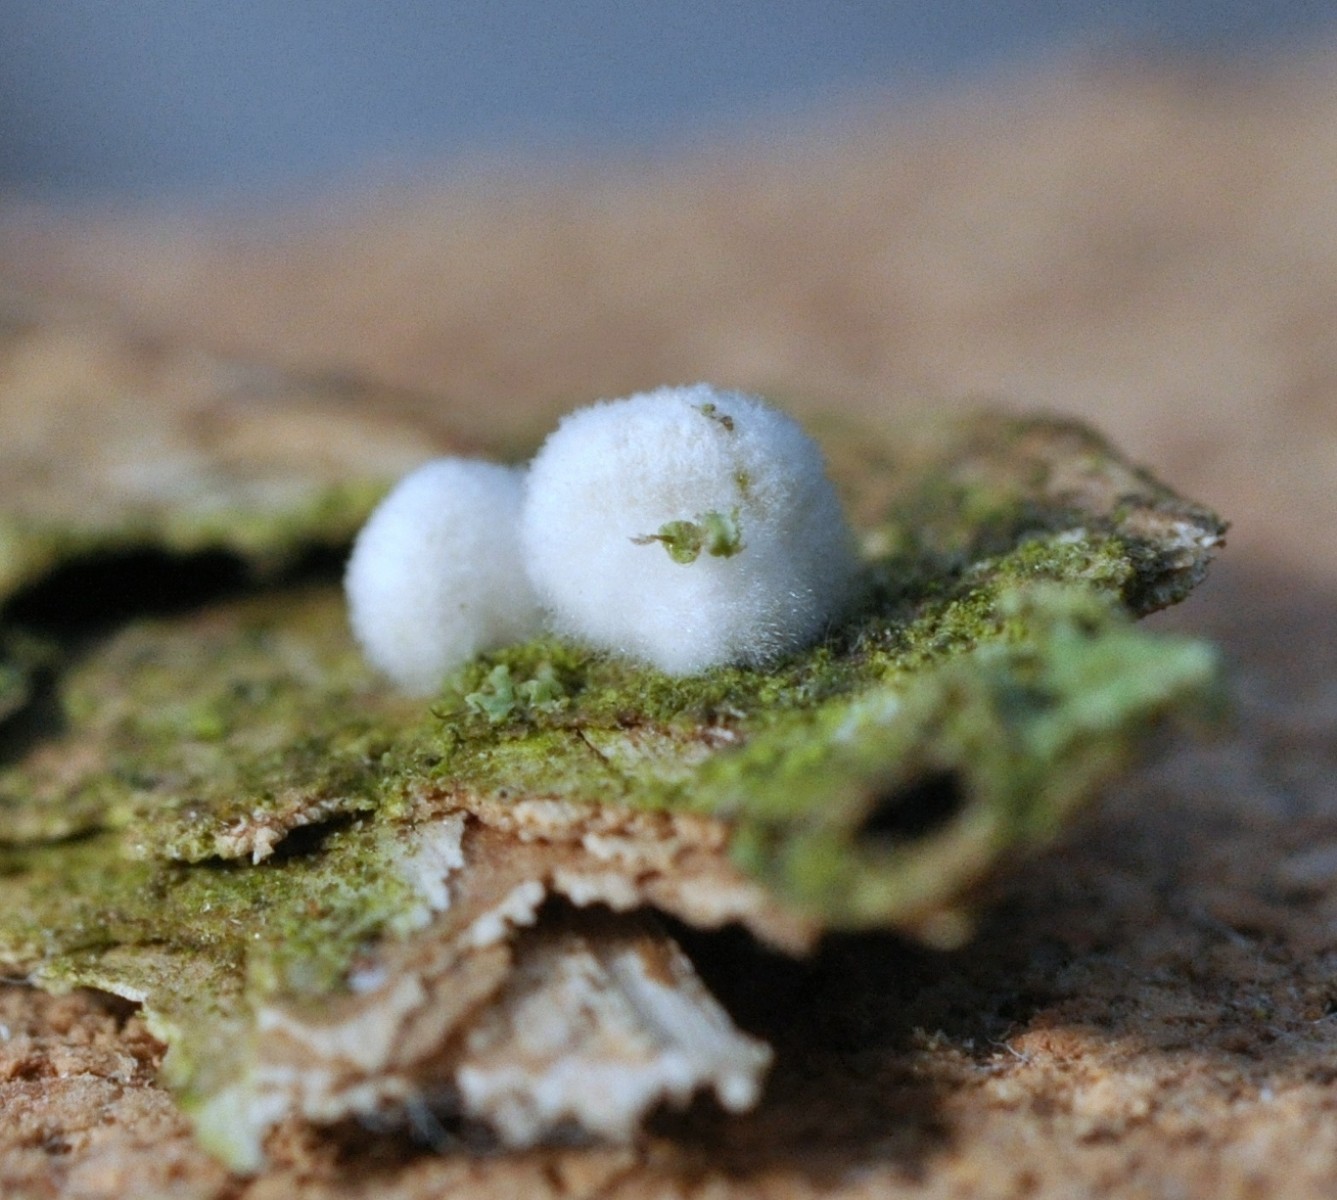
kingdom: Fungi
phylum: Basidiomycota
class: Agaricomycetes
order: Agaricales
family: Entolomataceae
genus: Clitopilus
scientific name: Clitopilus hobsonii
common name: Miller's oysterling
